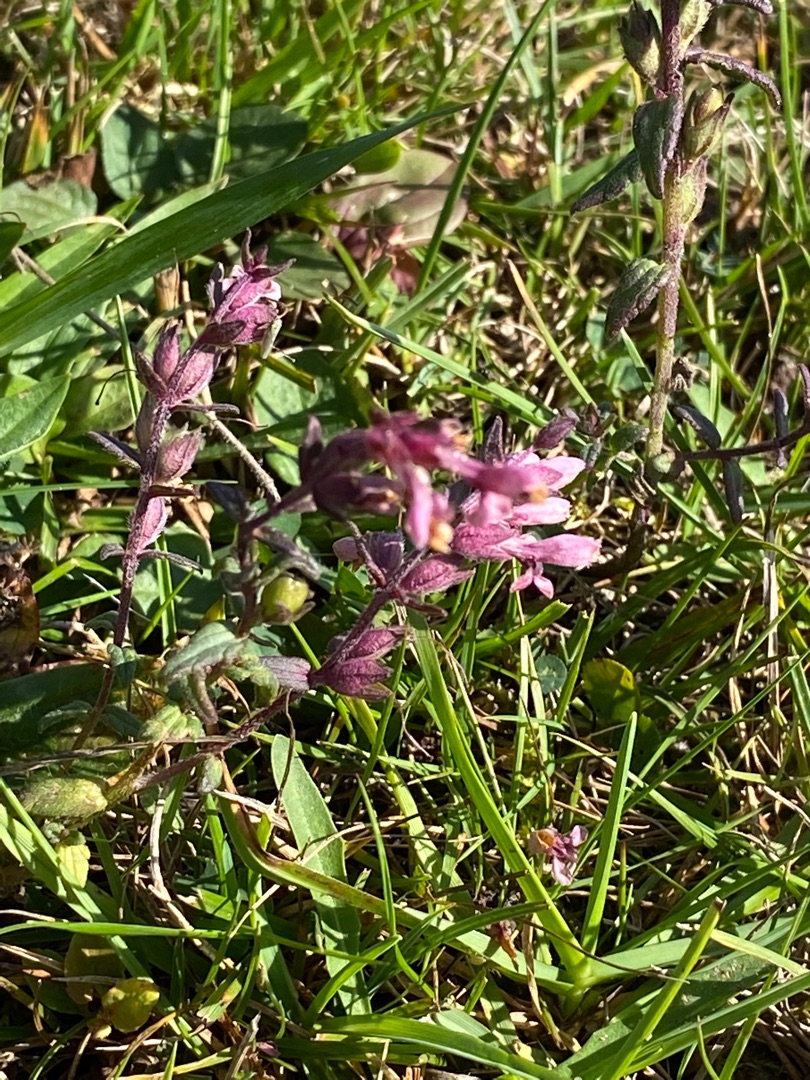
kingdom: Plantae
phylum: Tracheophyta
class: Magnoliopsida
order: Lamiales
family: Orobanchaceae
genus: Odontites
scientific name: Odontites vulgaris
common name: Høst-rødtop
